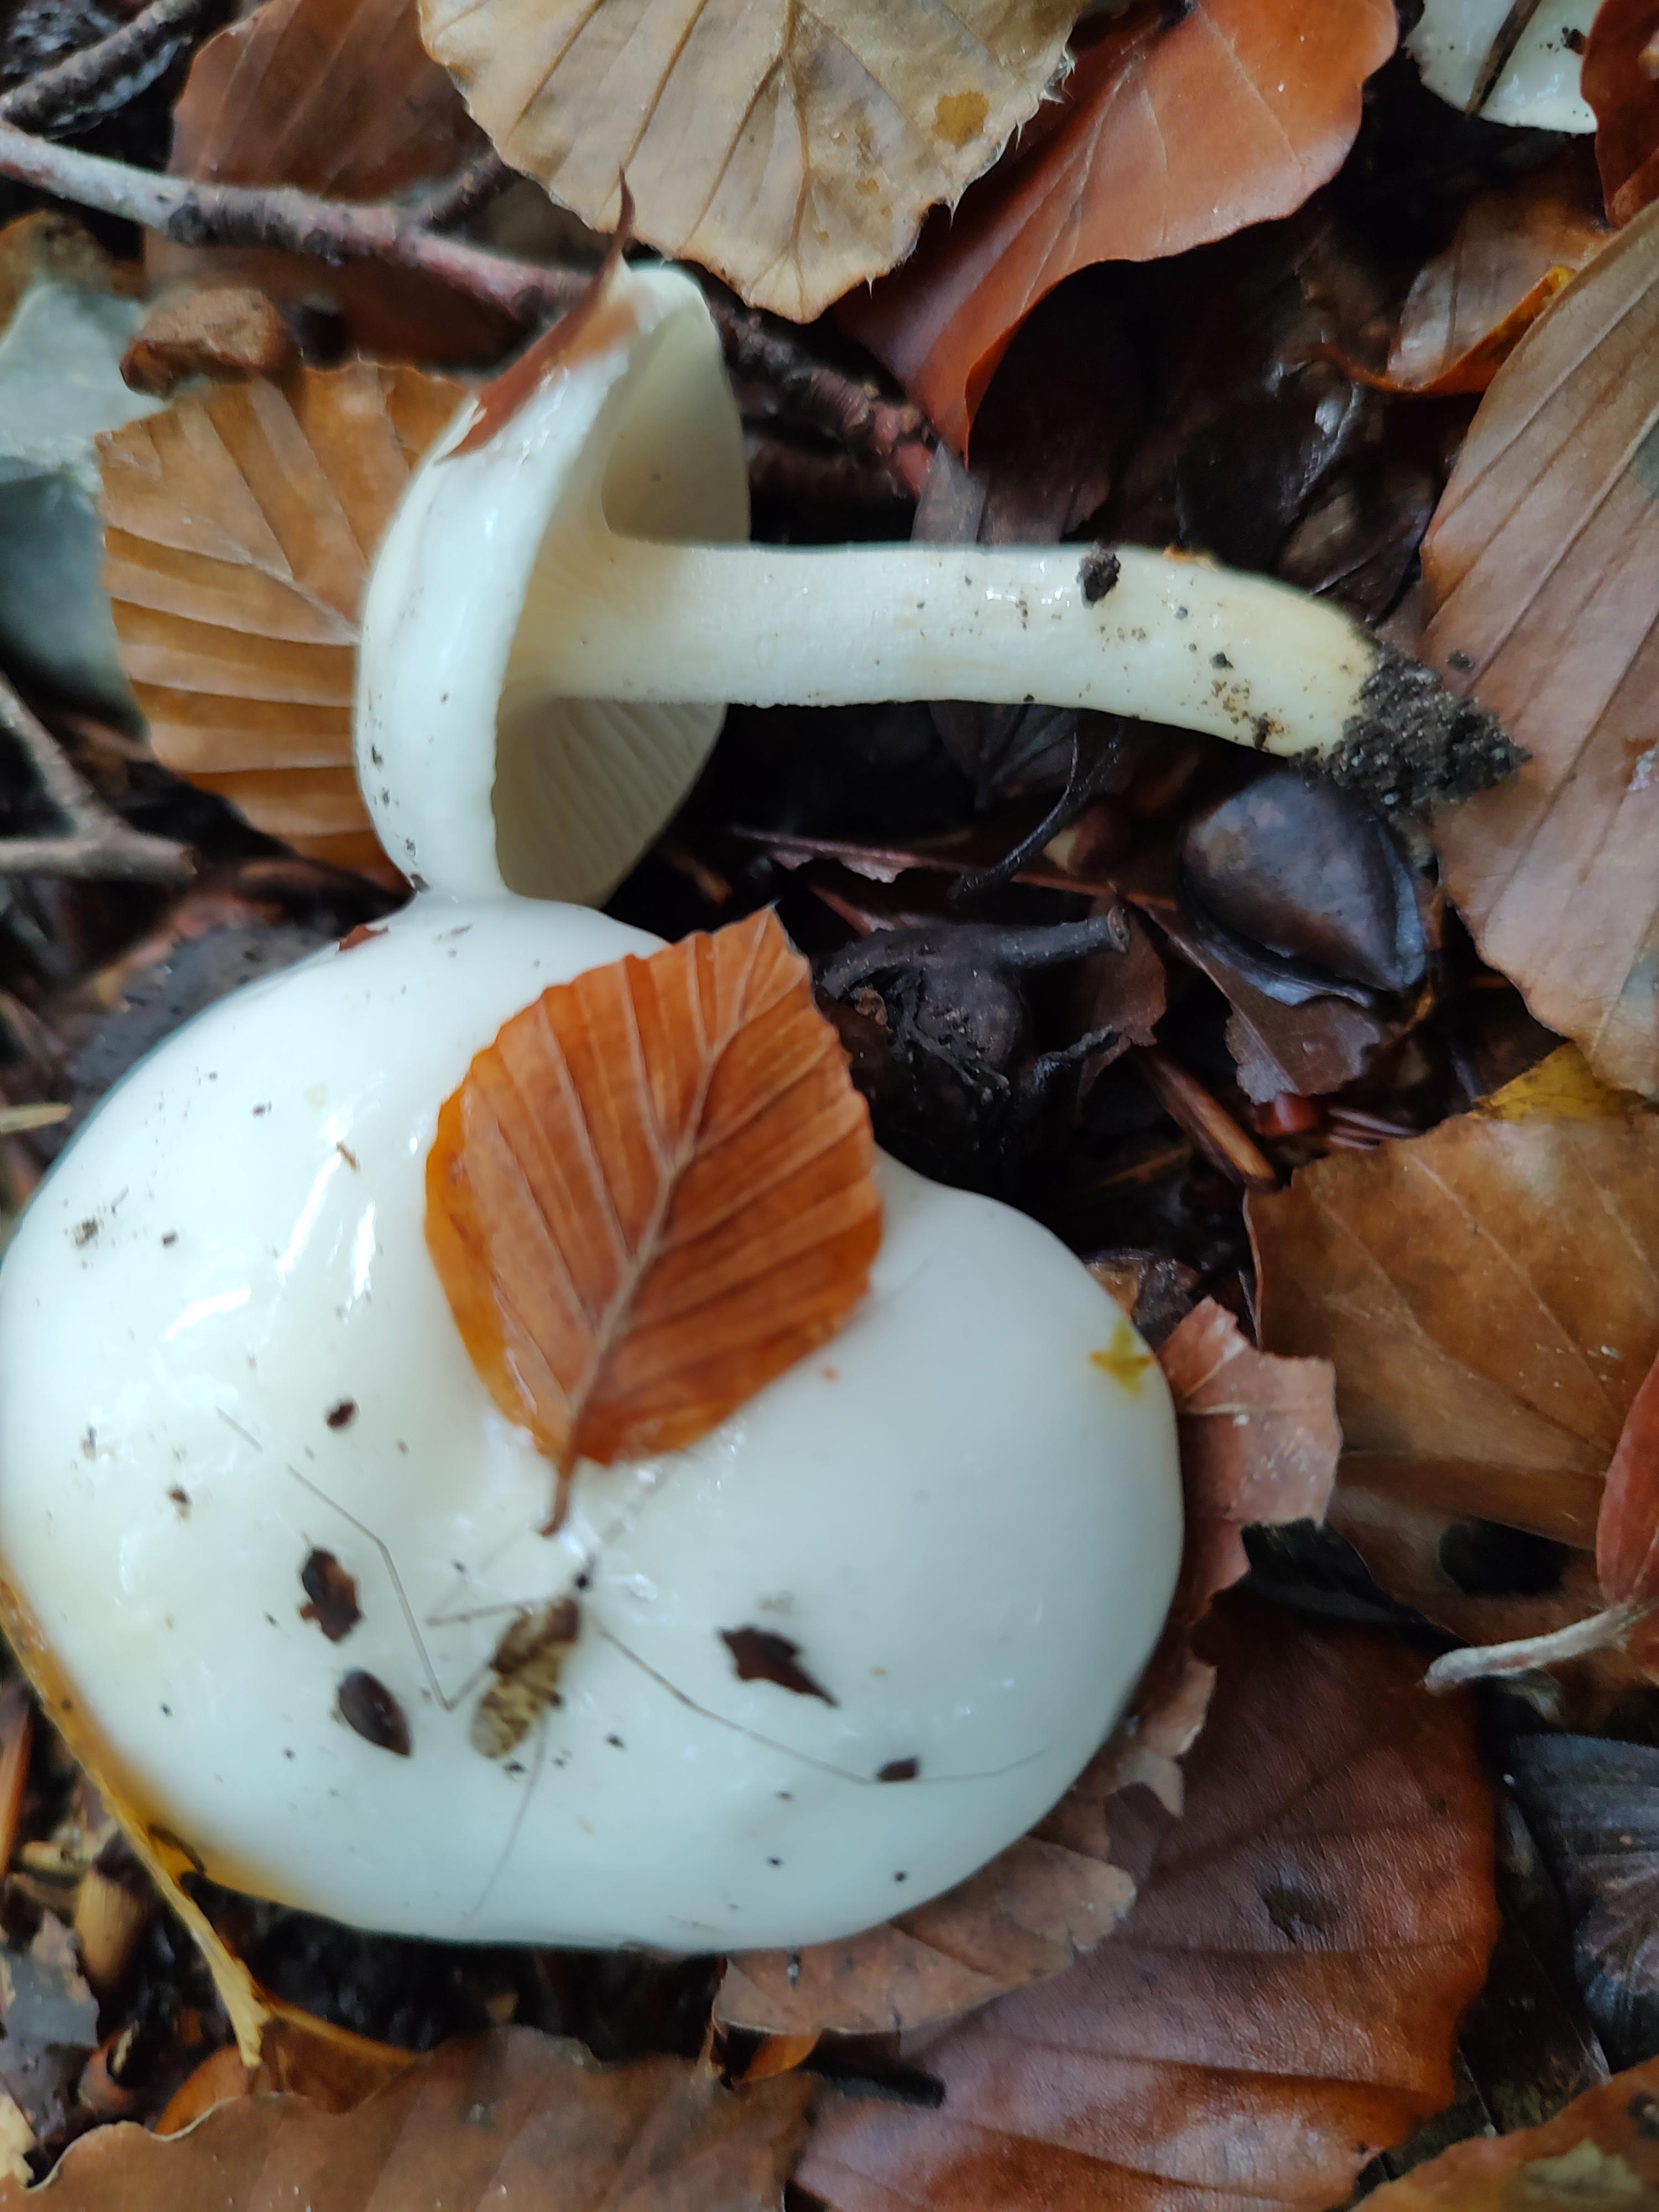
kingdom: Fungi
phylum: Basidiomycota
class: Agaricomycetes
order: Agaricales
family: Hygrophoraceae
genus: Hygrophorus
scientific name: Hygrophorus eburneus
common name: elfenbens-sneglehat
